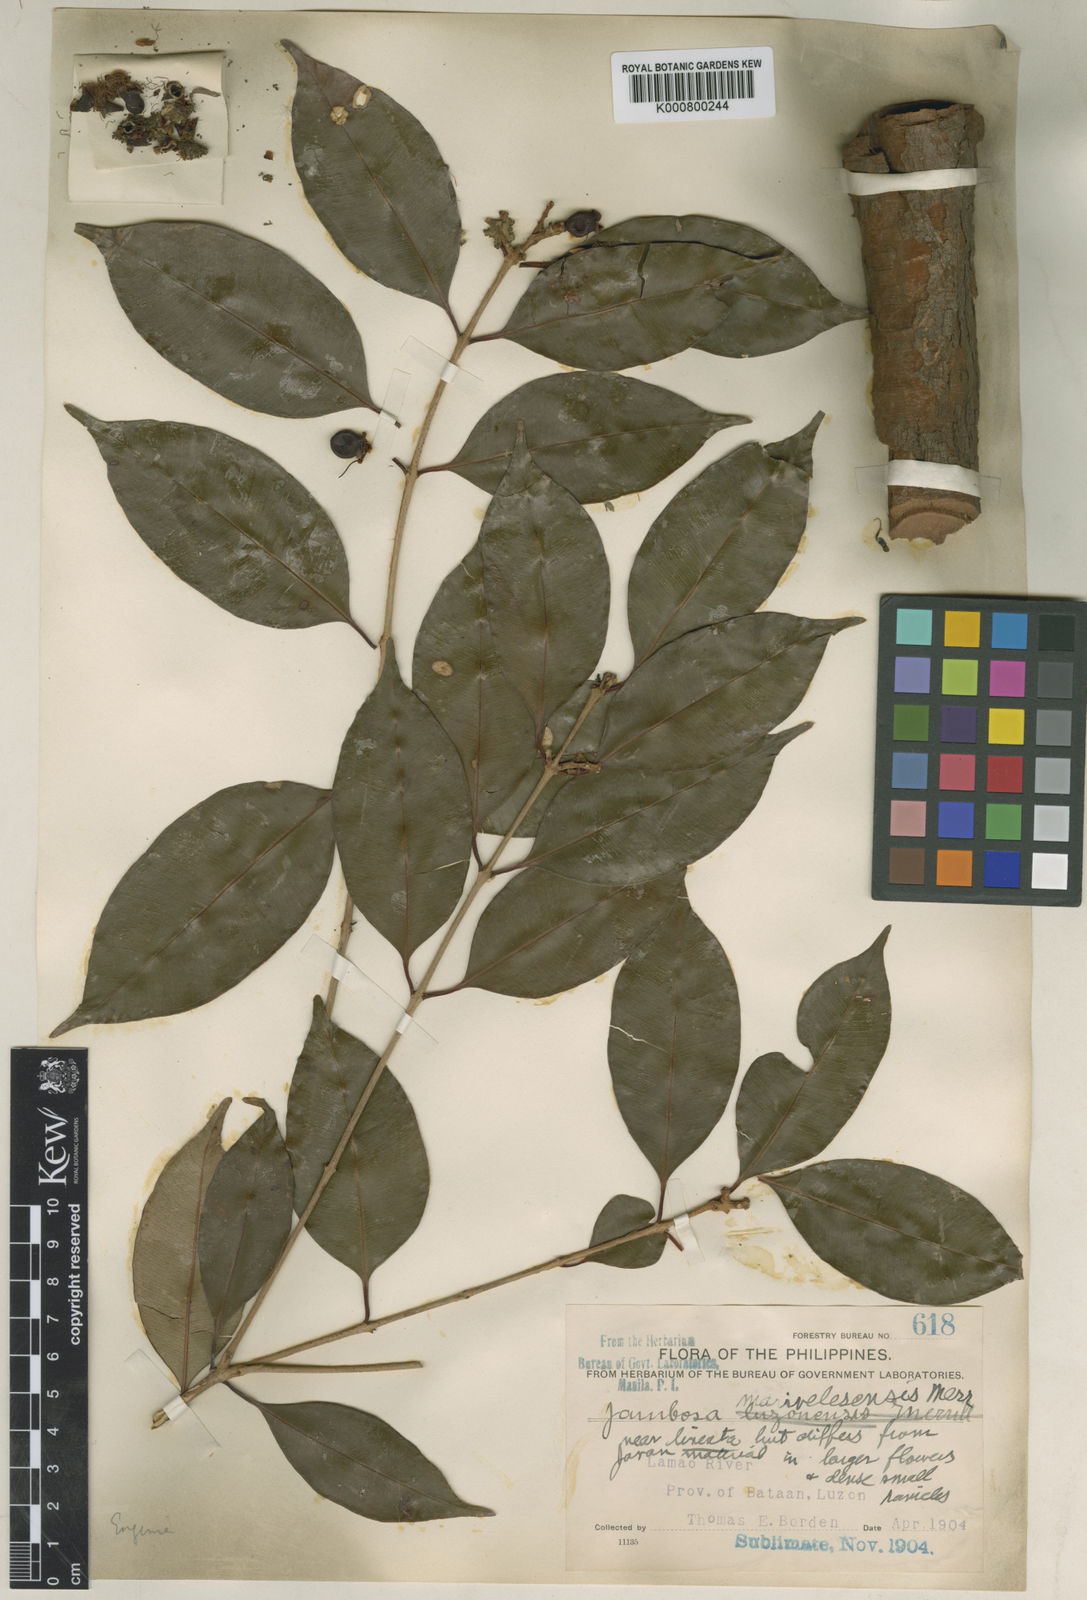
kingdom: Plantae
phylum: Tracheophyta
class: Magnoliopsida
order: Myrtales
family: Myrtaceae
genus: Syzygium
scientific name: Syzygium lineatum
